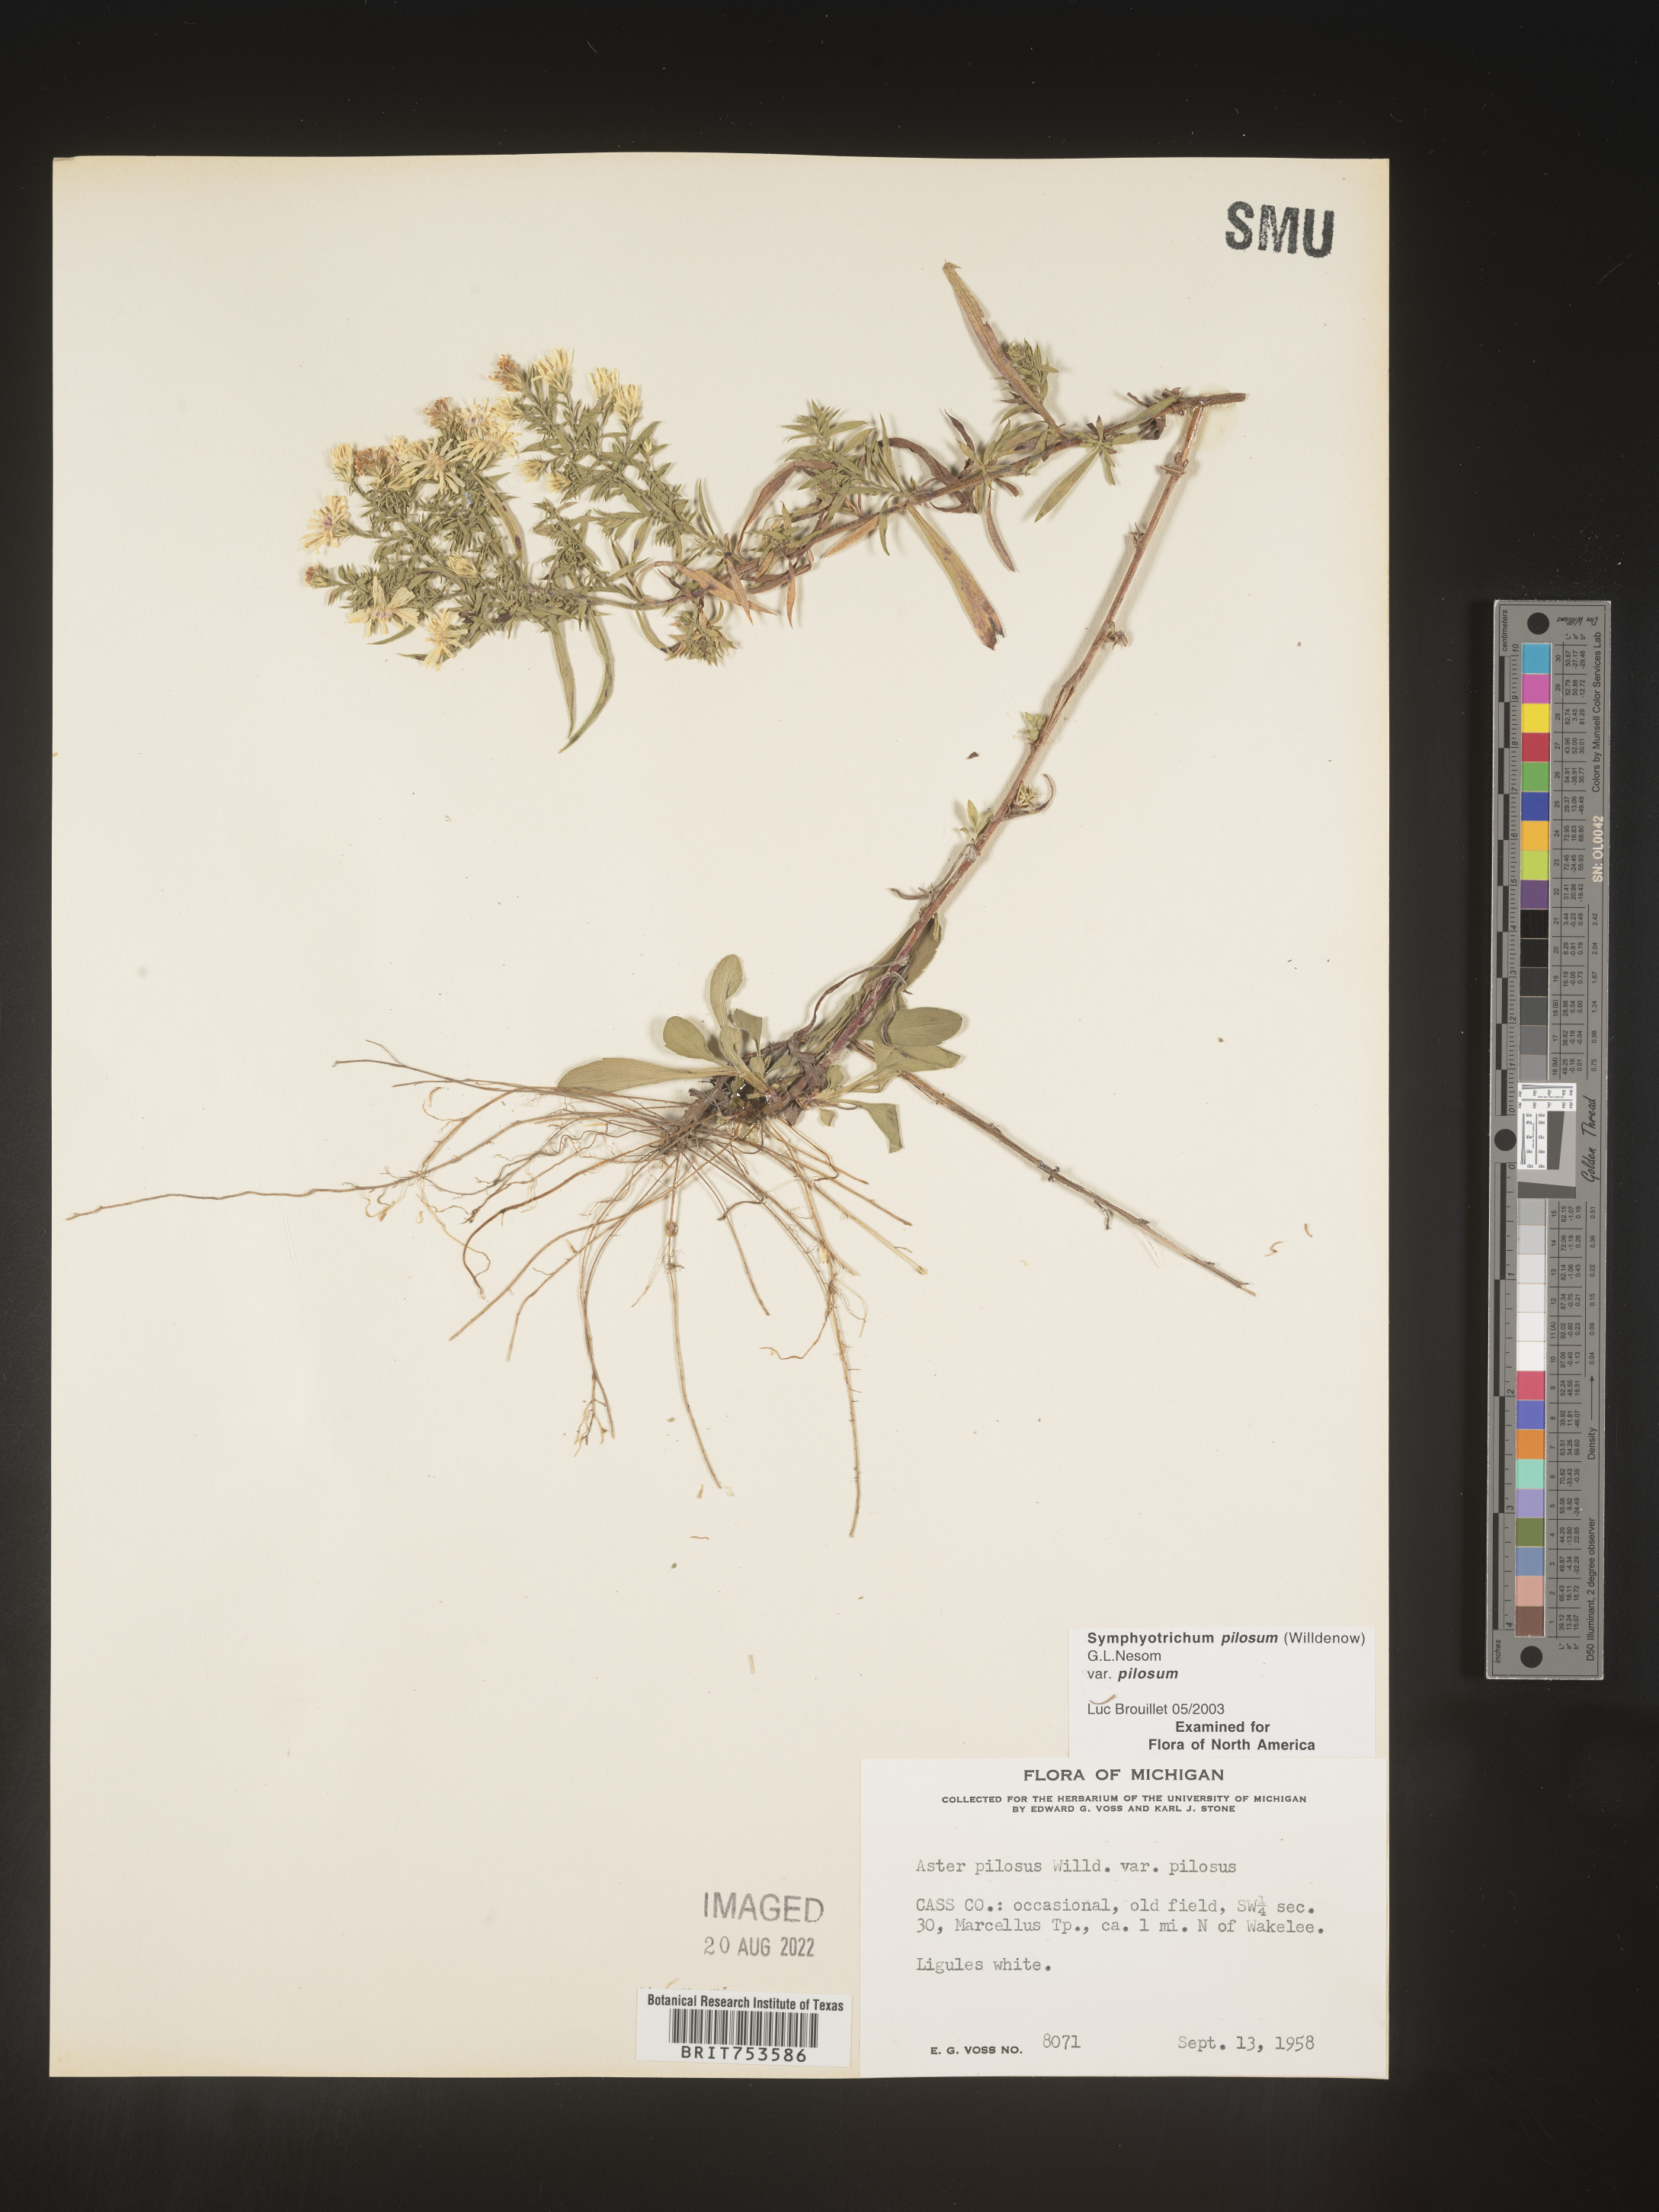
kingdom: Plantae
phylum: Tracheophyta
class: Magnoliopsida
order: Asterales
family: Asteraceae
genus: Symphyotrichum
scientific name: Symphyotrichum pilosum
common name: Awl aster
